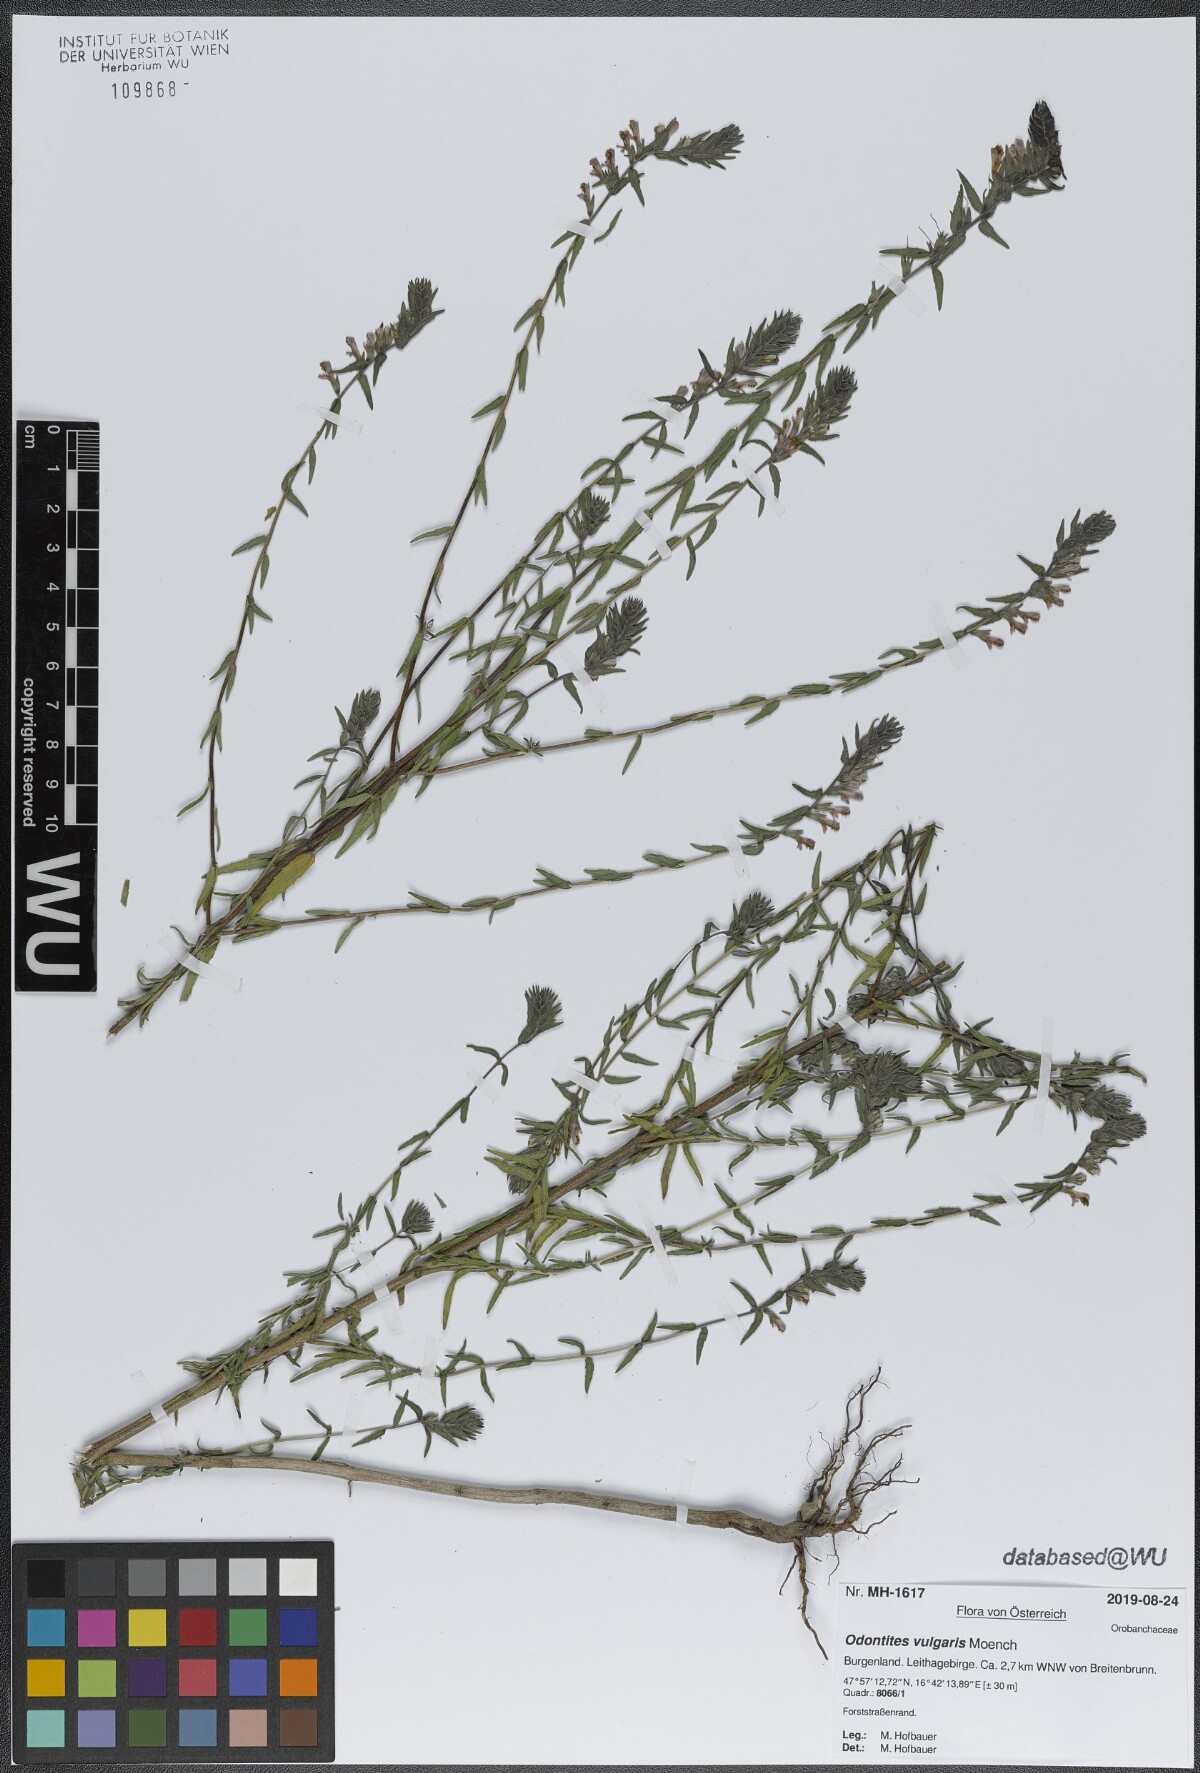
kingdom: Plantae
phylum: Tracheophyta
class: Magnoliopsida
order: Lamiales
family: Orobanchaceae
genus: Odontites
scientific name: Odontites vulgaris
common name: Broomrape
